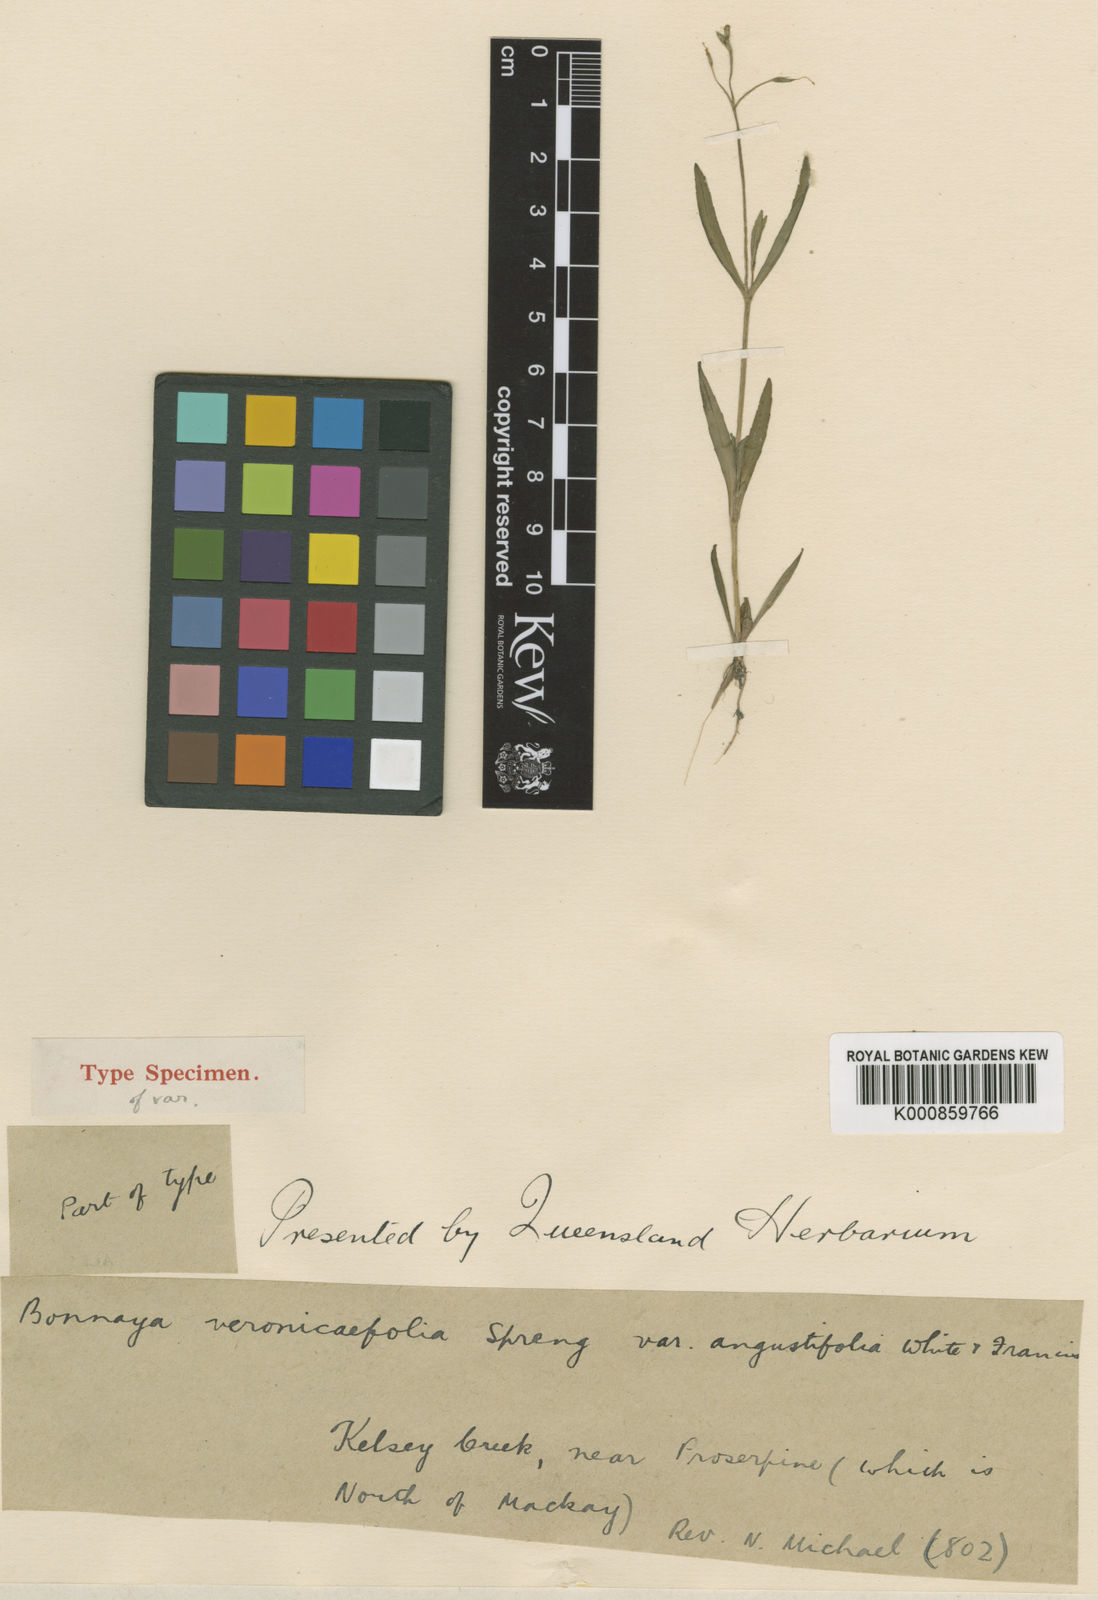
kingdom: Plantae
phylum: Tracheophyta
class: Magnoliopsida
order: Lamiales
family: Linderniaceae
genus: Bonnaya
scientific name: Bonnaya veronicifolia
